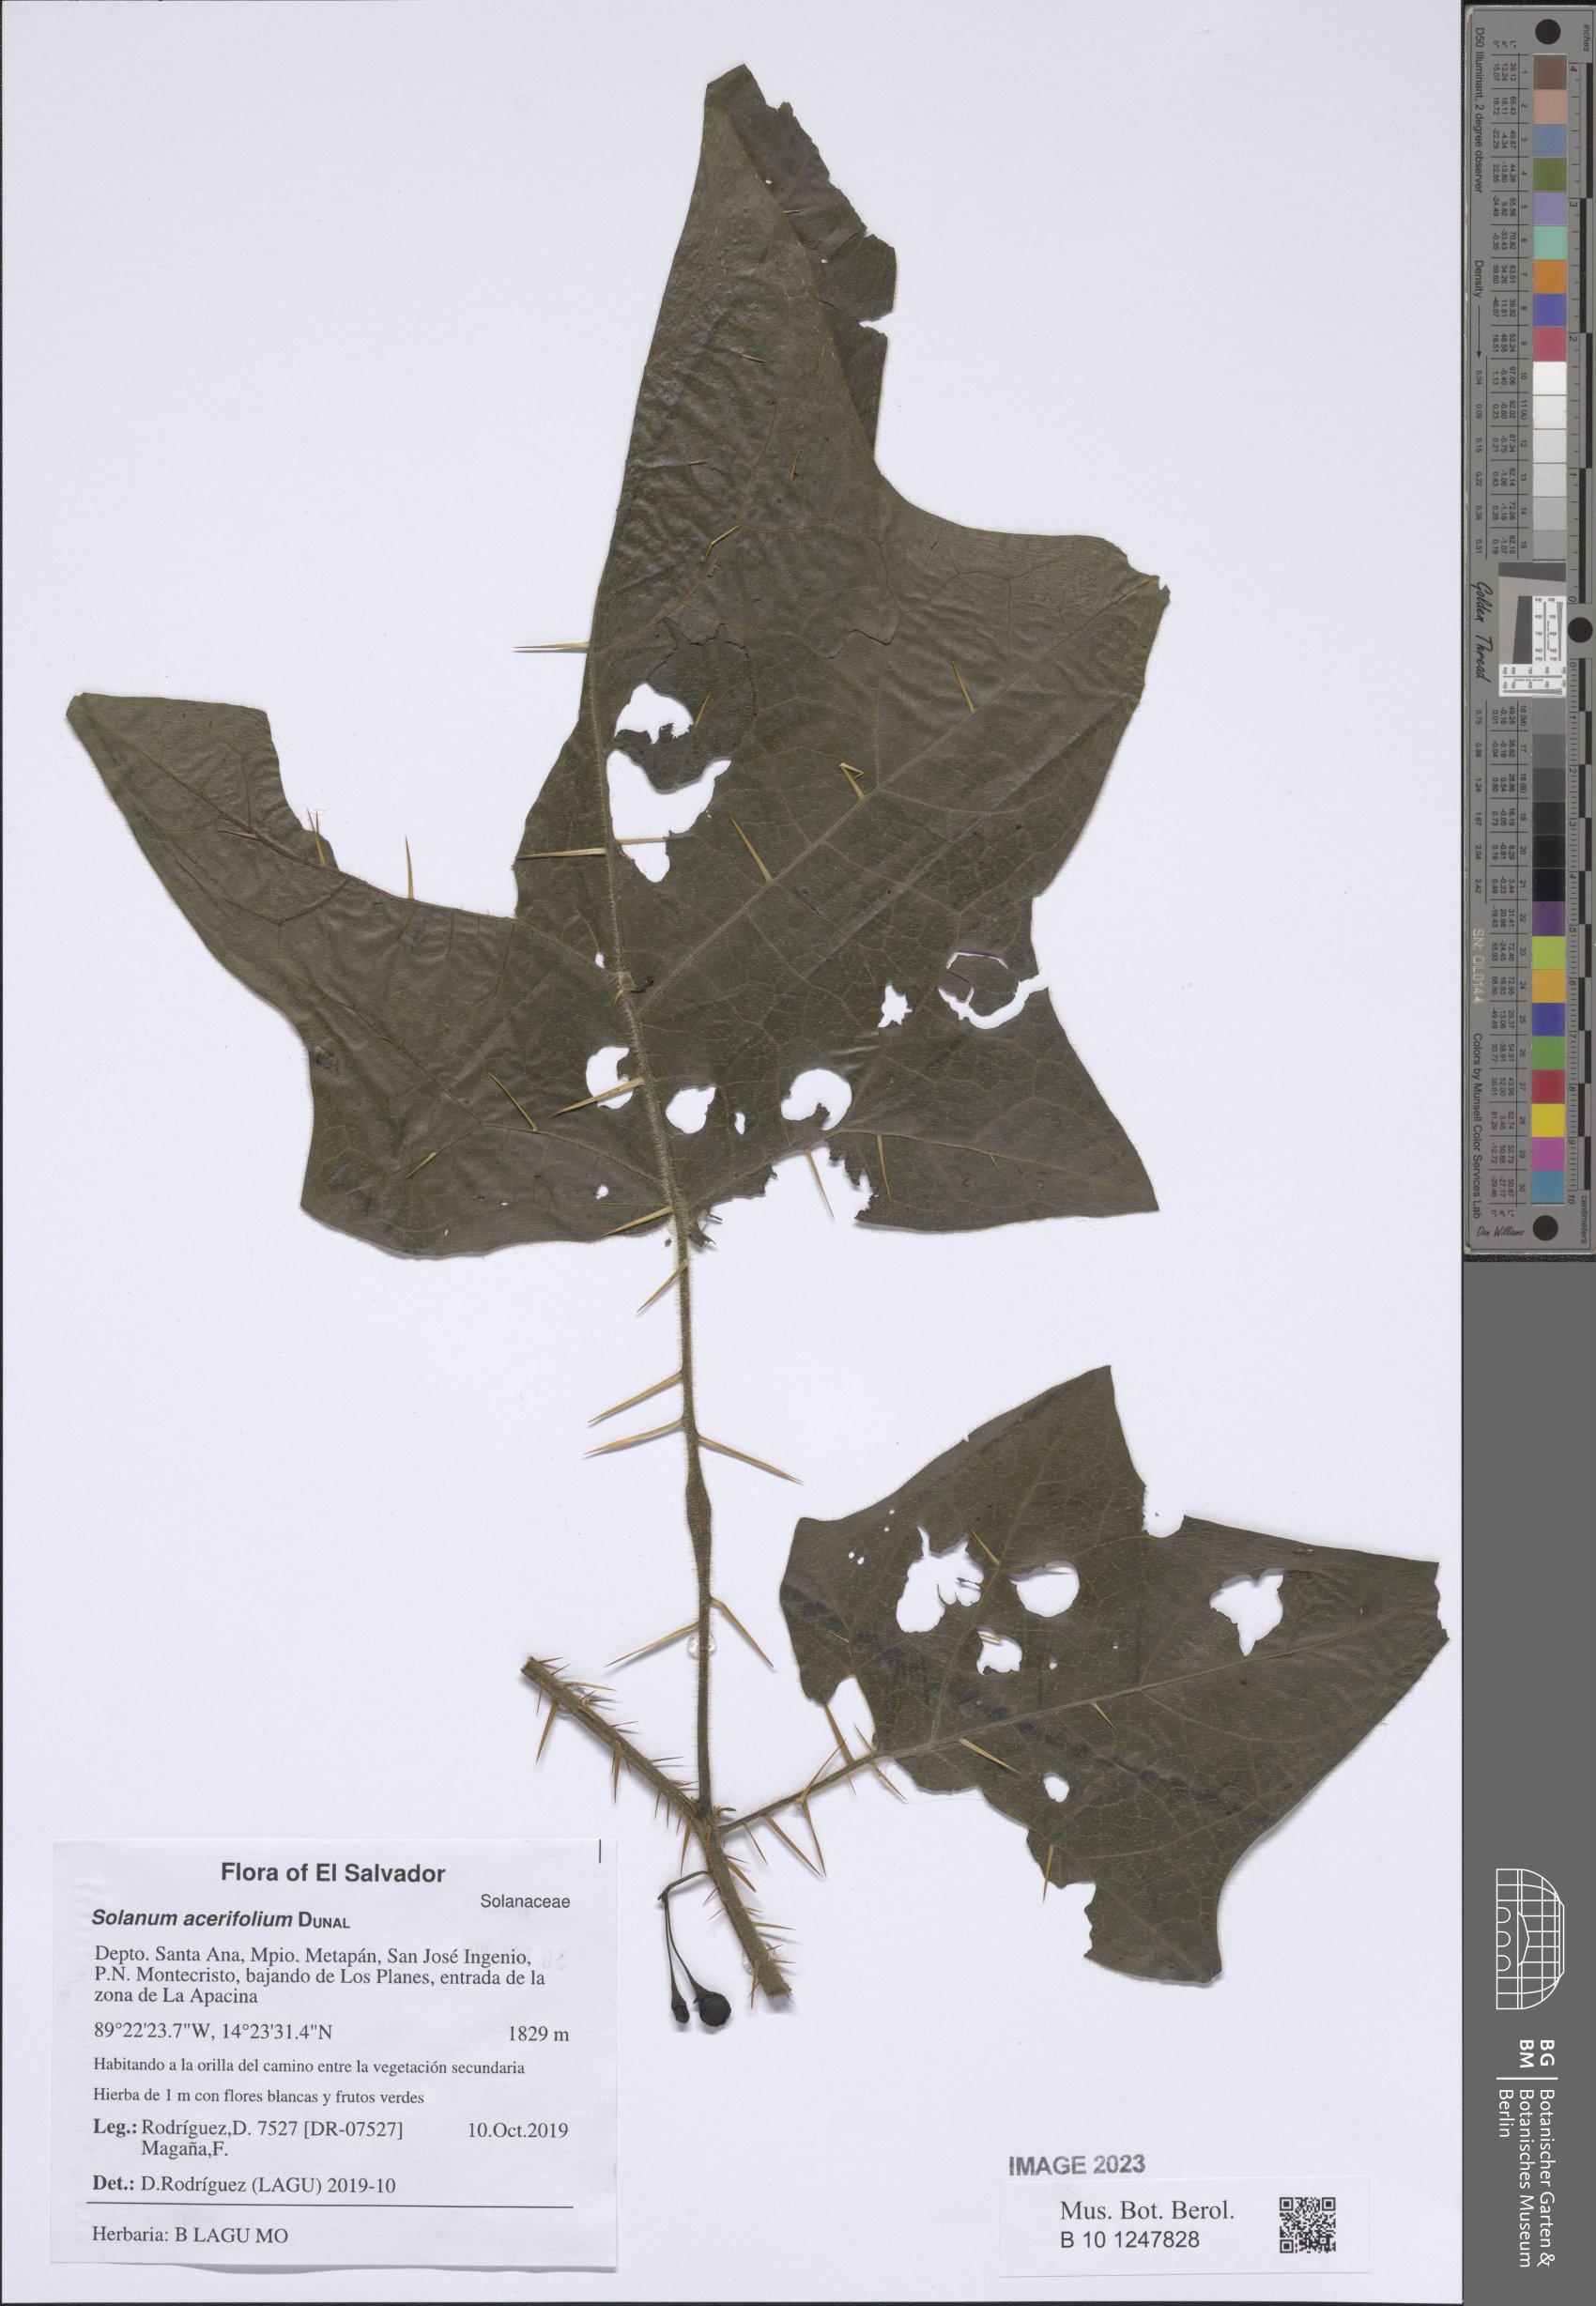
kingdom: Plantae
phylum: Tracheophyta
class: Magnoliopsida
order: Solanales
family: Solanaceae
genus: Solanum
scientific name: Solanum acerifolium
